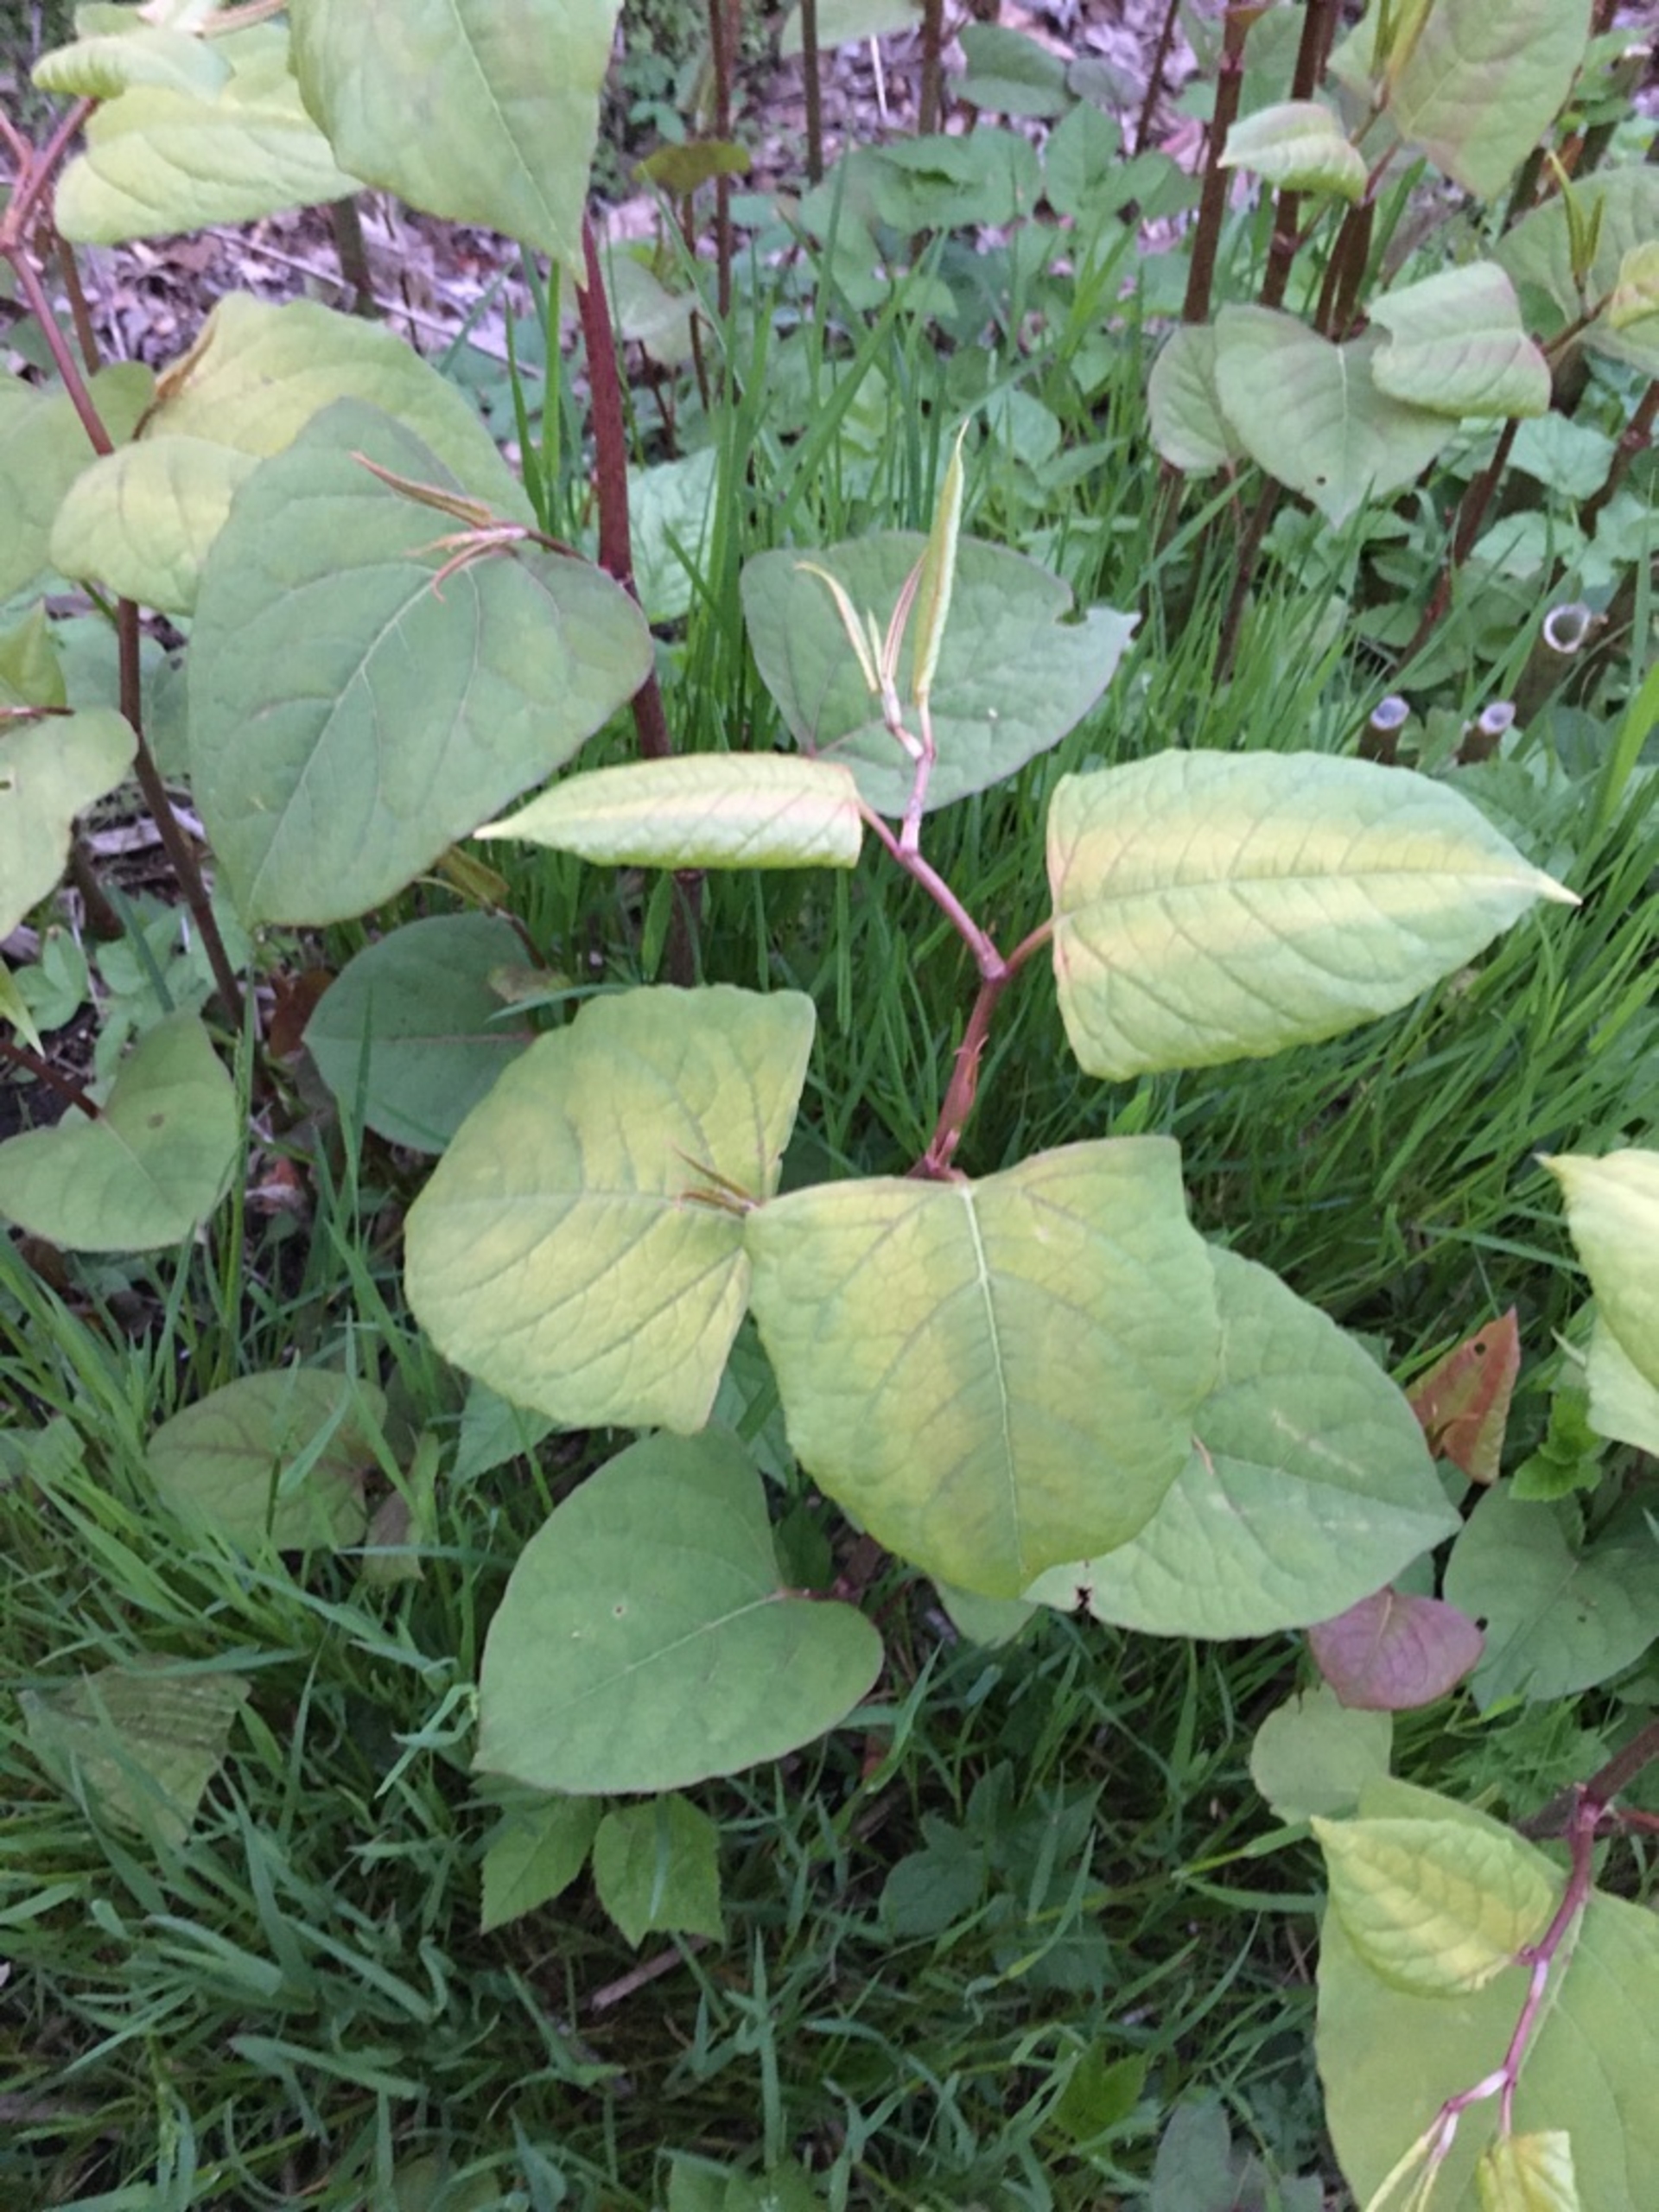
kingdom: Plantae
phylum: Tracheophyta
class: Magnoliopsida
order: Caryophyllales
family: Polygonaceae
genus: Reynoutria
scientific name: Reynoutria japonica
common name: Japan-pileurt
